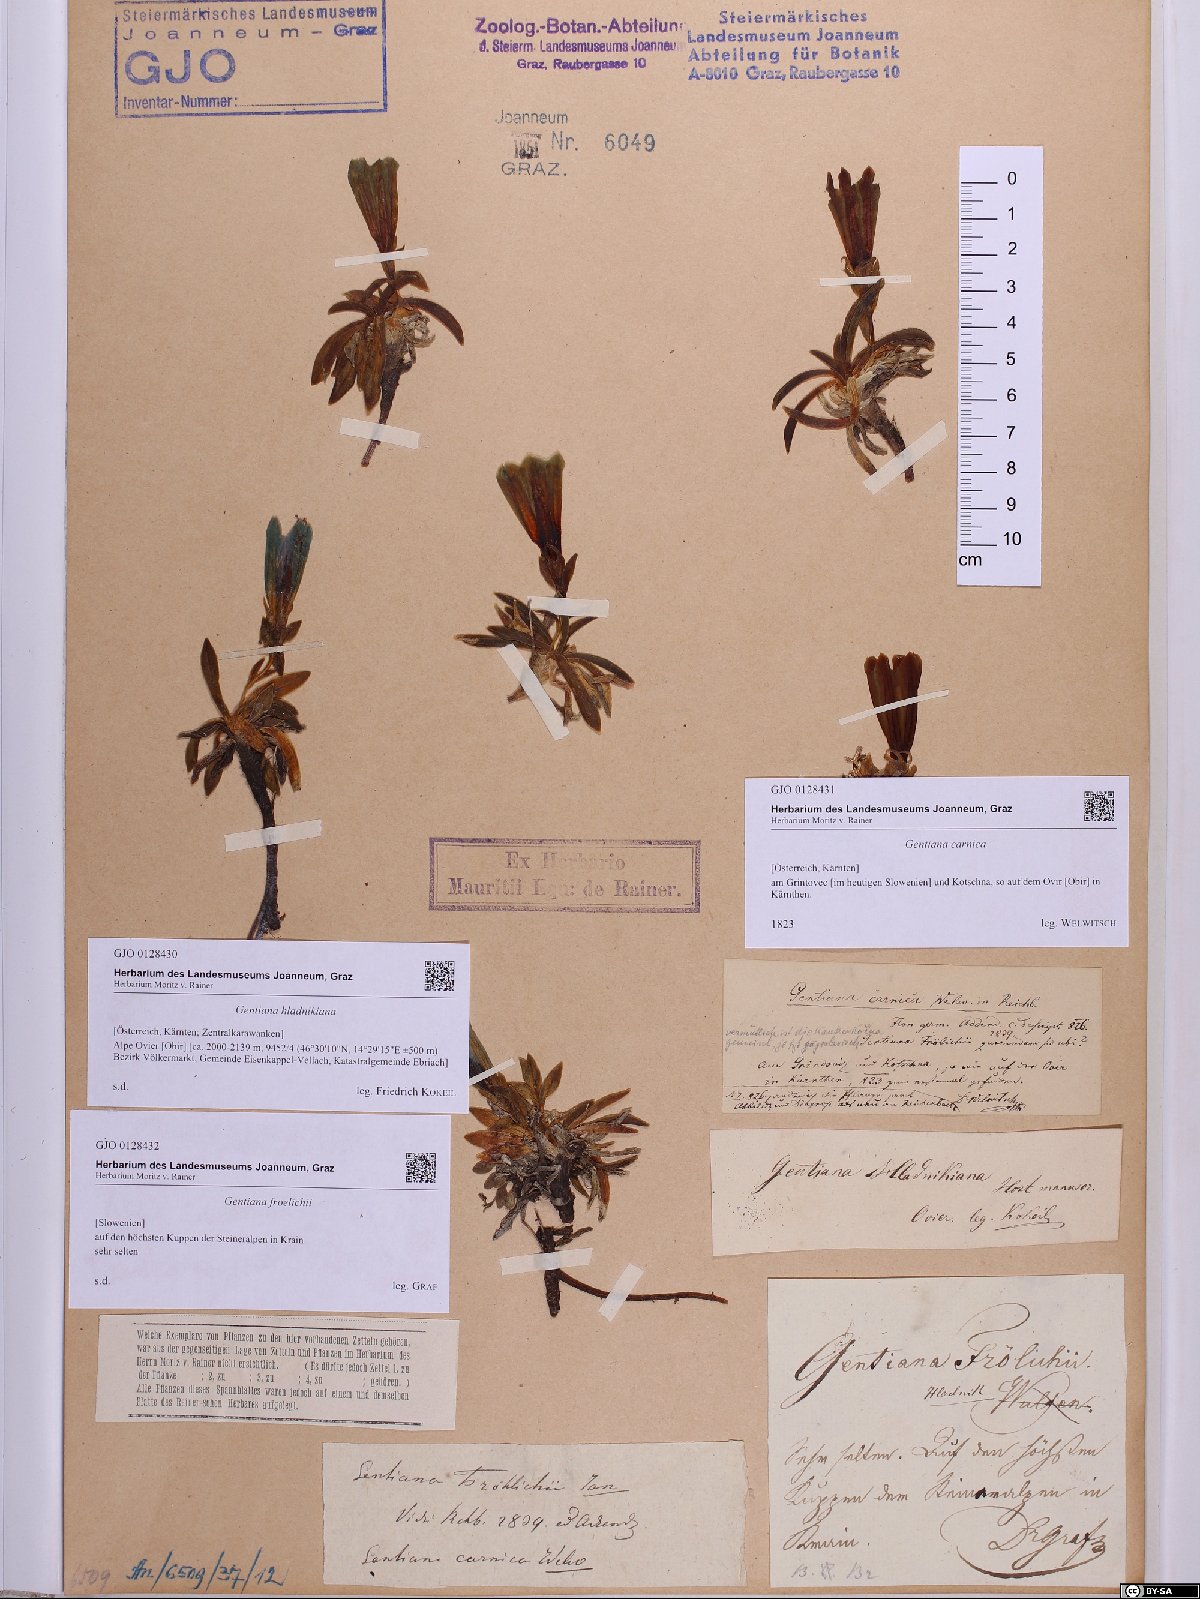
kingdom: Plantae
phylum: Tracheophyta
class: Magnoliopsida
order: Gentianales
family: Gentianaceae
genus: Gentiana
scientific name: Gentiana froelichii
